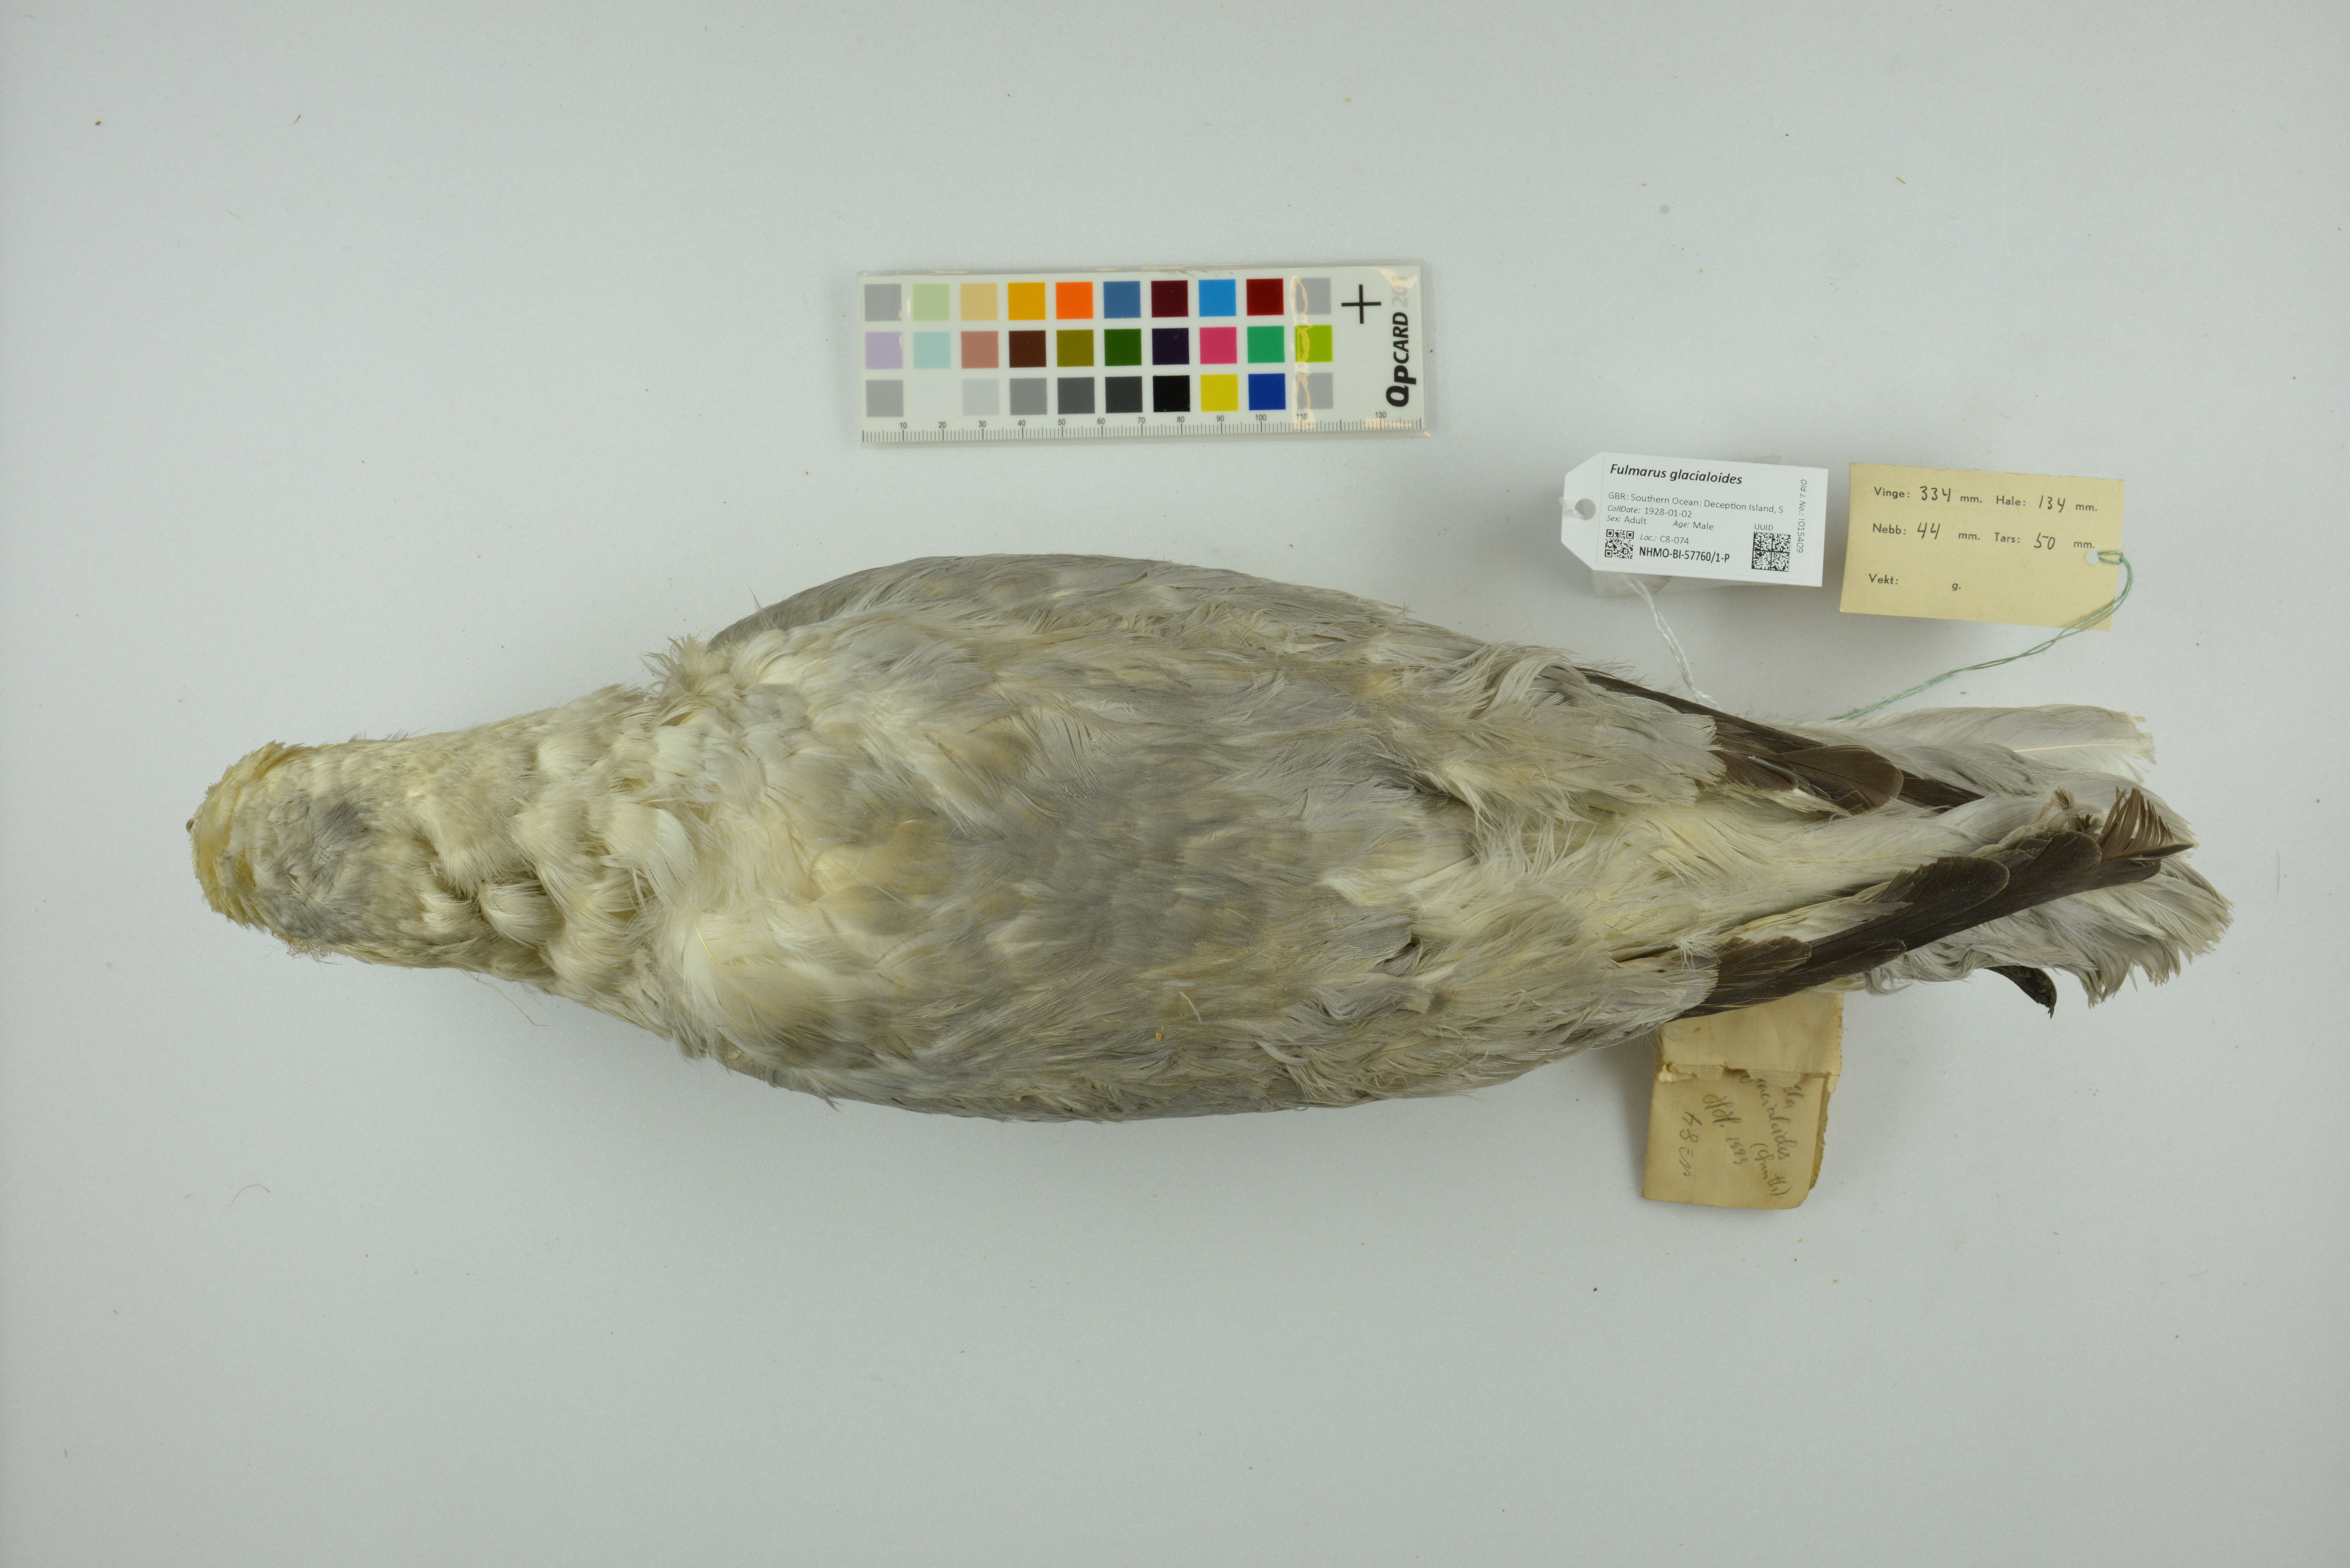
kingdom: Animalia
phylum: Chordata
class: Aves
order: Procellariiformes
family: Procellariidae
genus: Fulmarus
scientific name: Fulmarus glacialoides
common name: Southern fulmar
